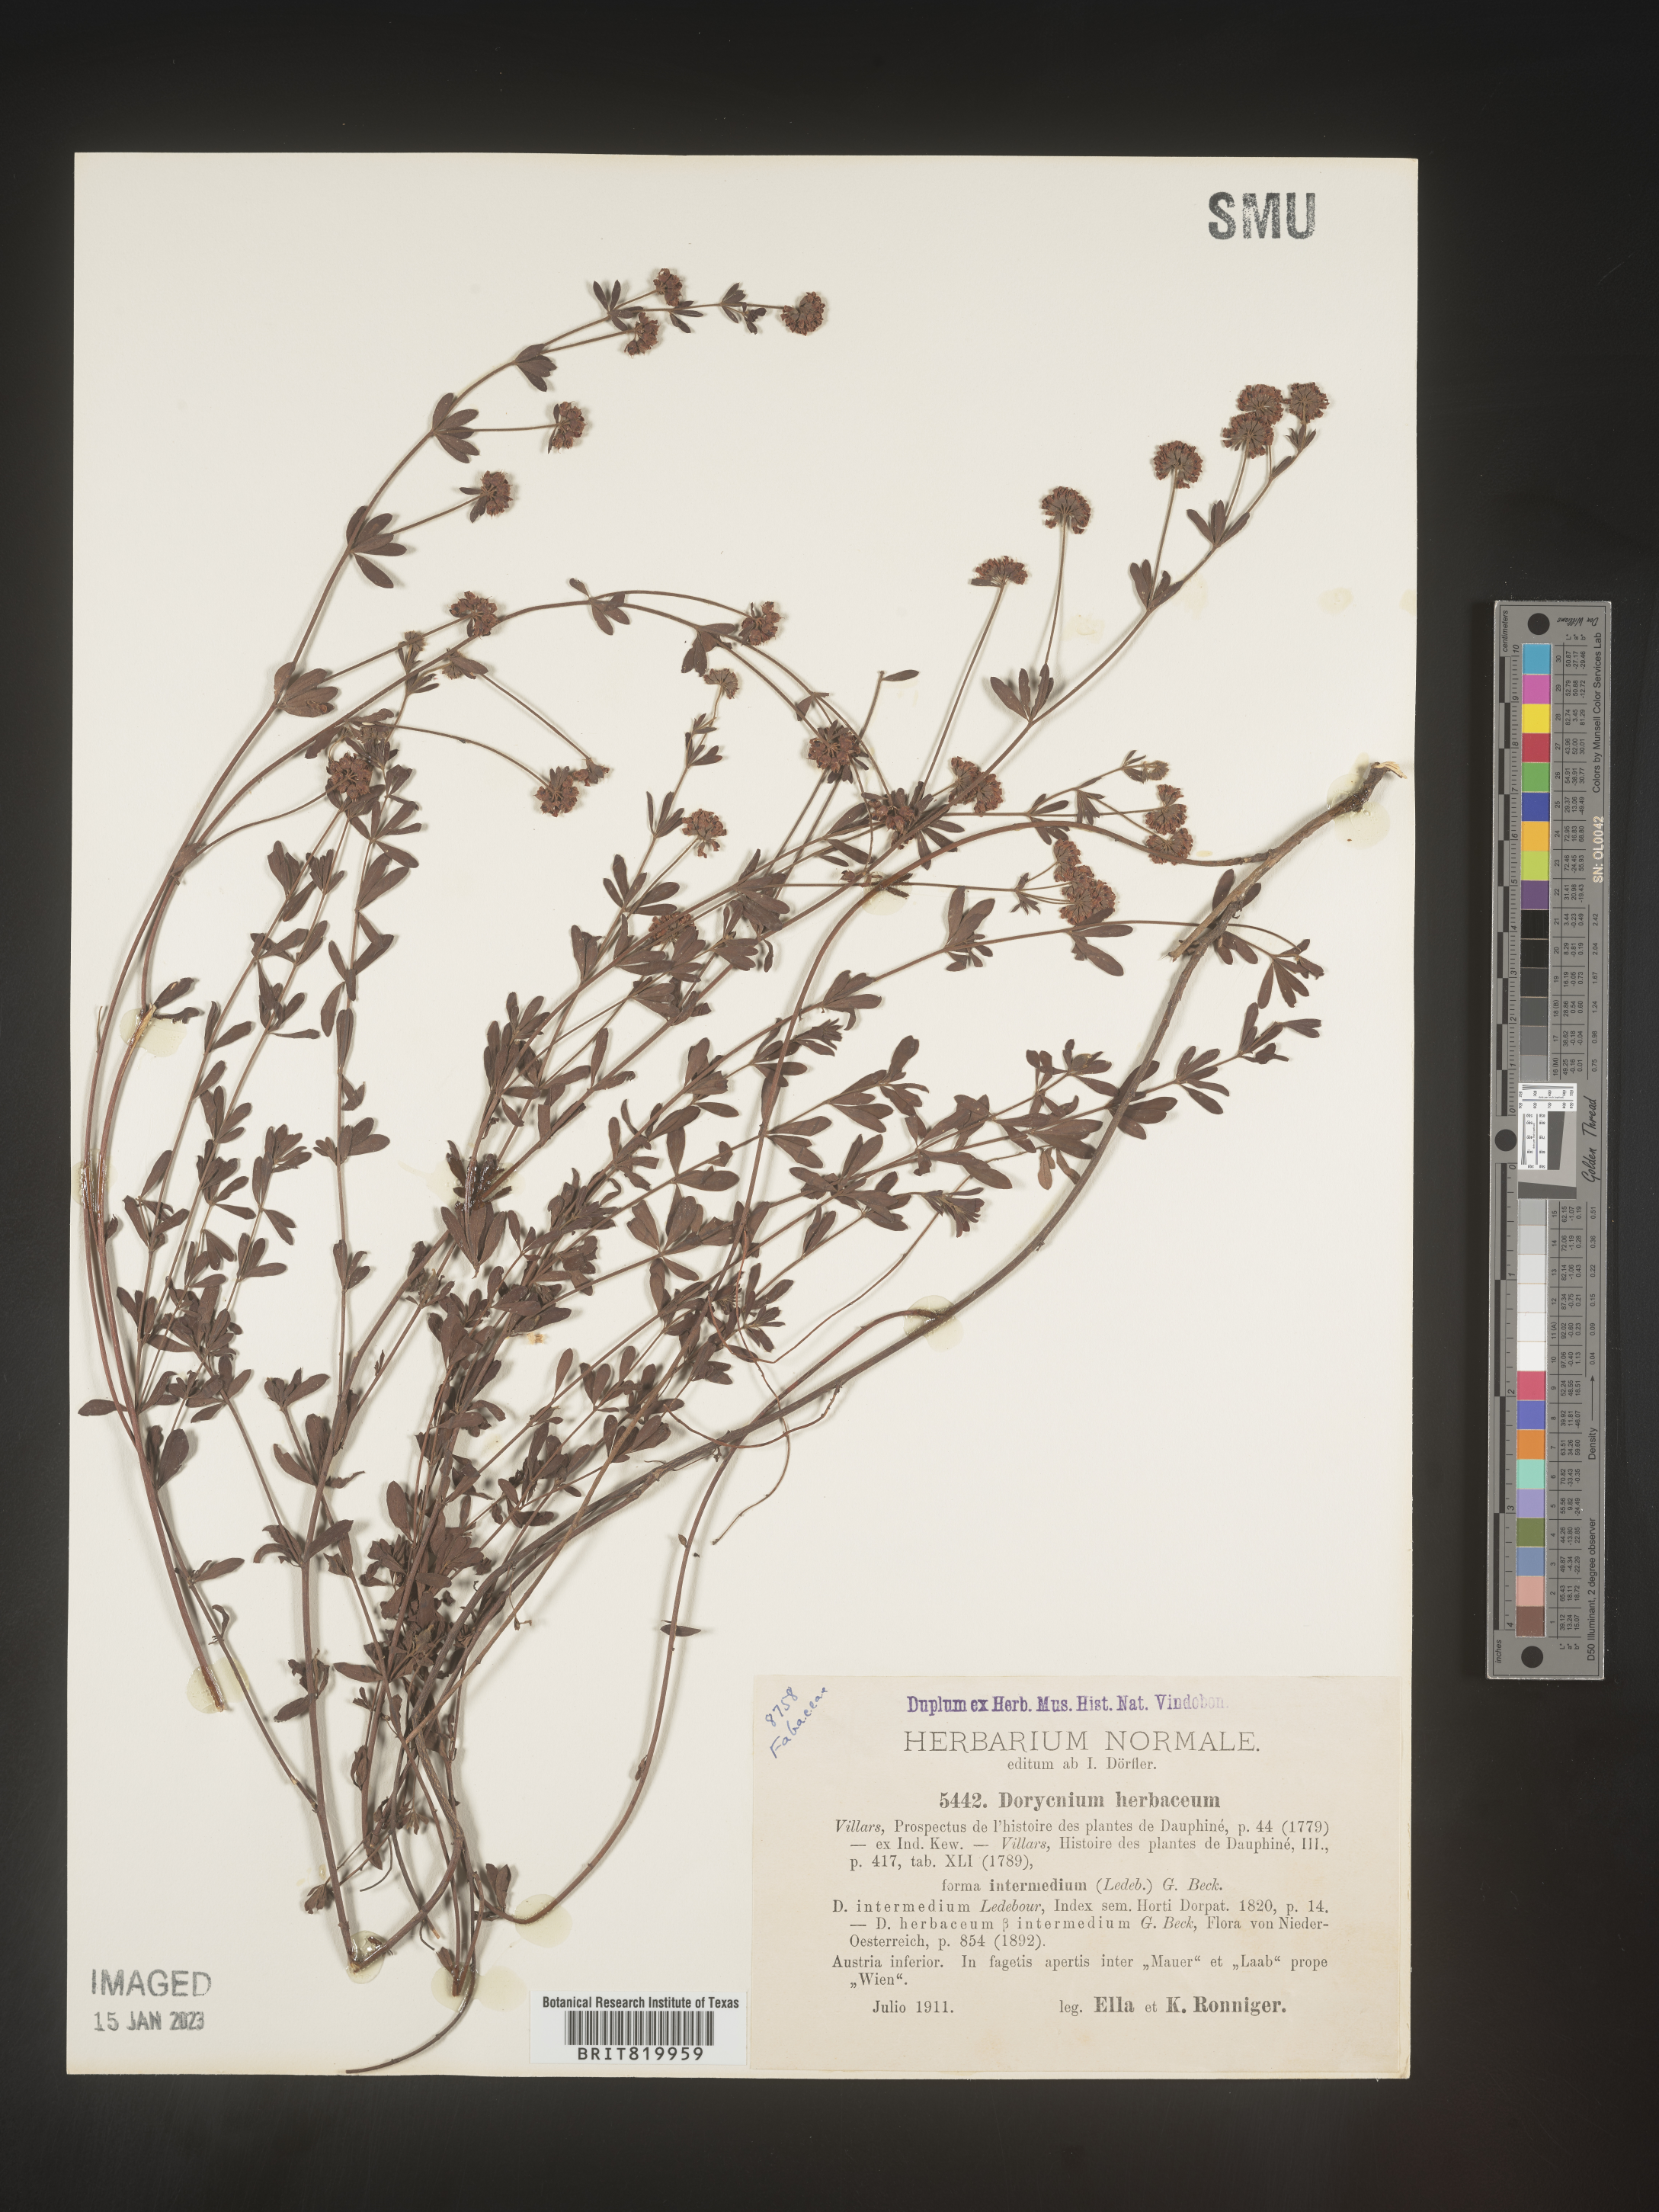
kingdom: Plantae
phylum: Tracheophyta
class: Magnoliopsida
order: Fabales
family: Fabaceae
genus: Lotus
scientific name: Lotus
